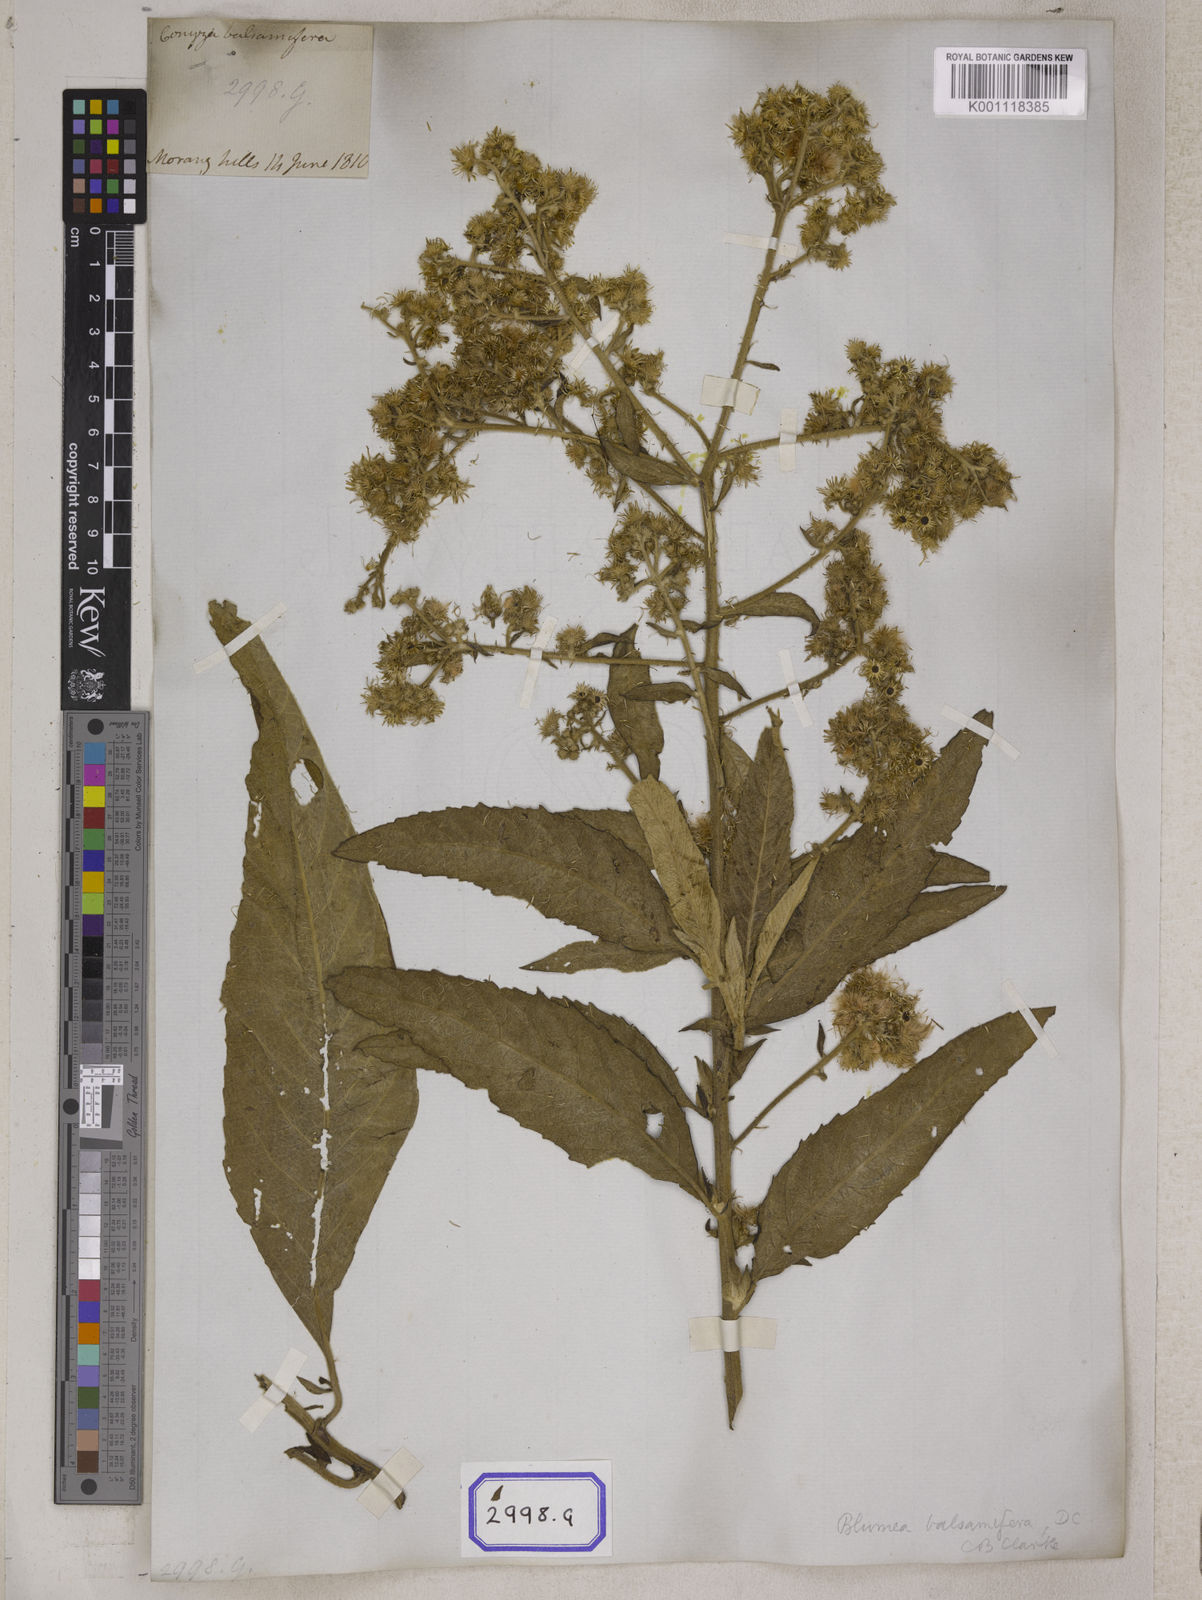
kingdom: Plantae
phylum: Tracheophyta
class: Magnoliopsida
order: Asterales
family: Asteraceae
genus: Blumea
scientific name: Blumea balsamifera
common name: Ngai camphor
